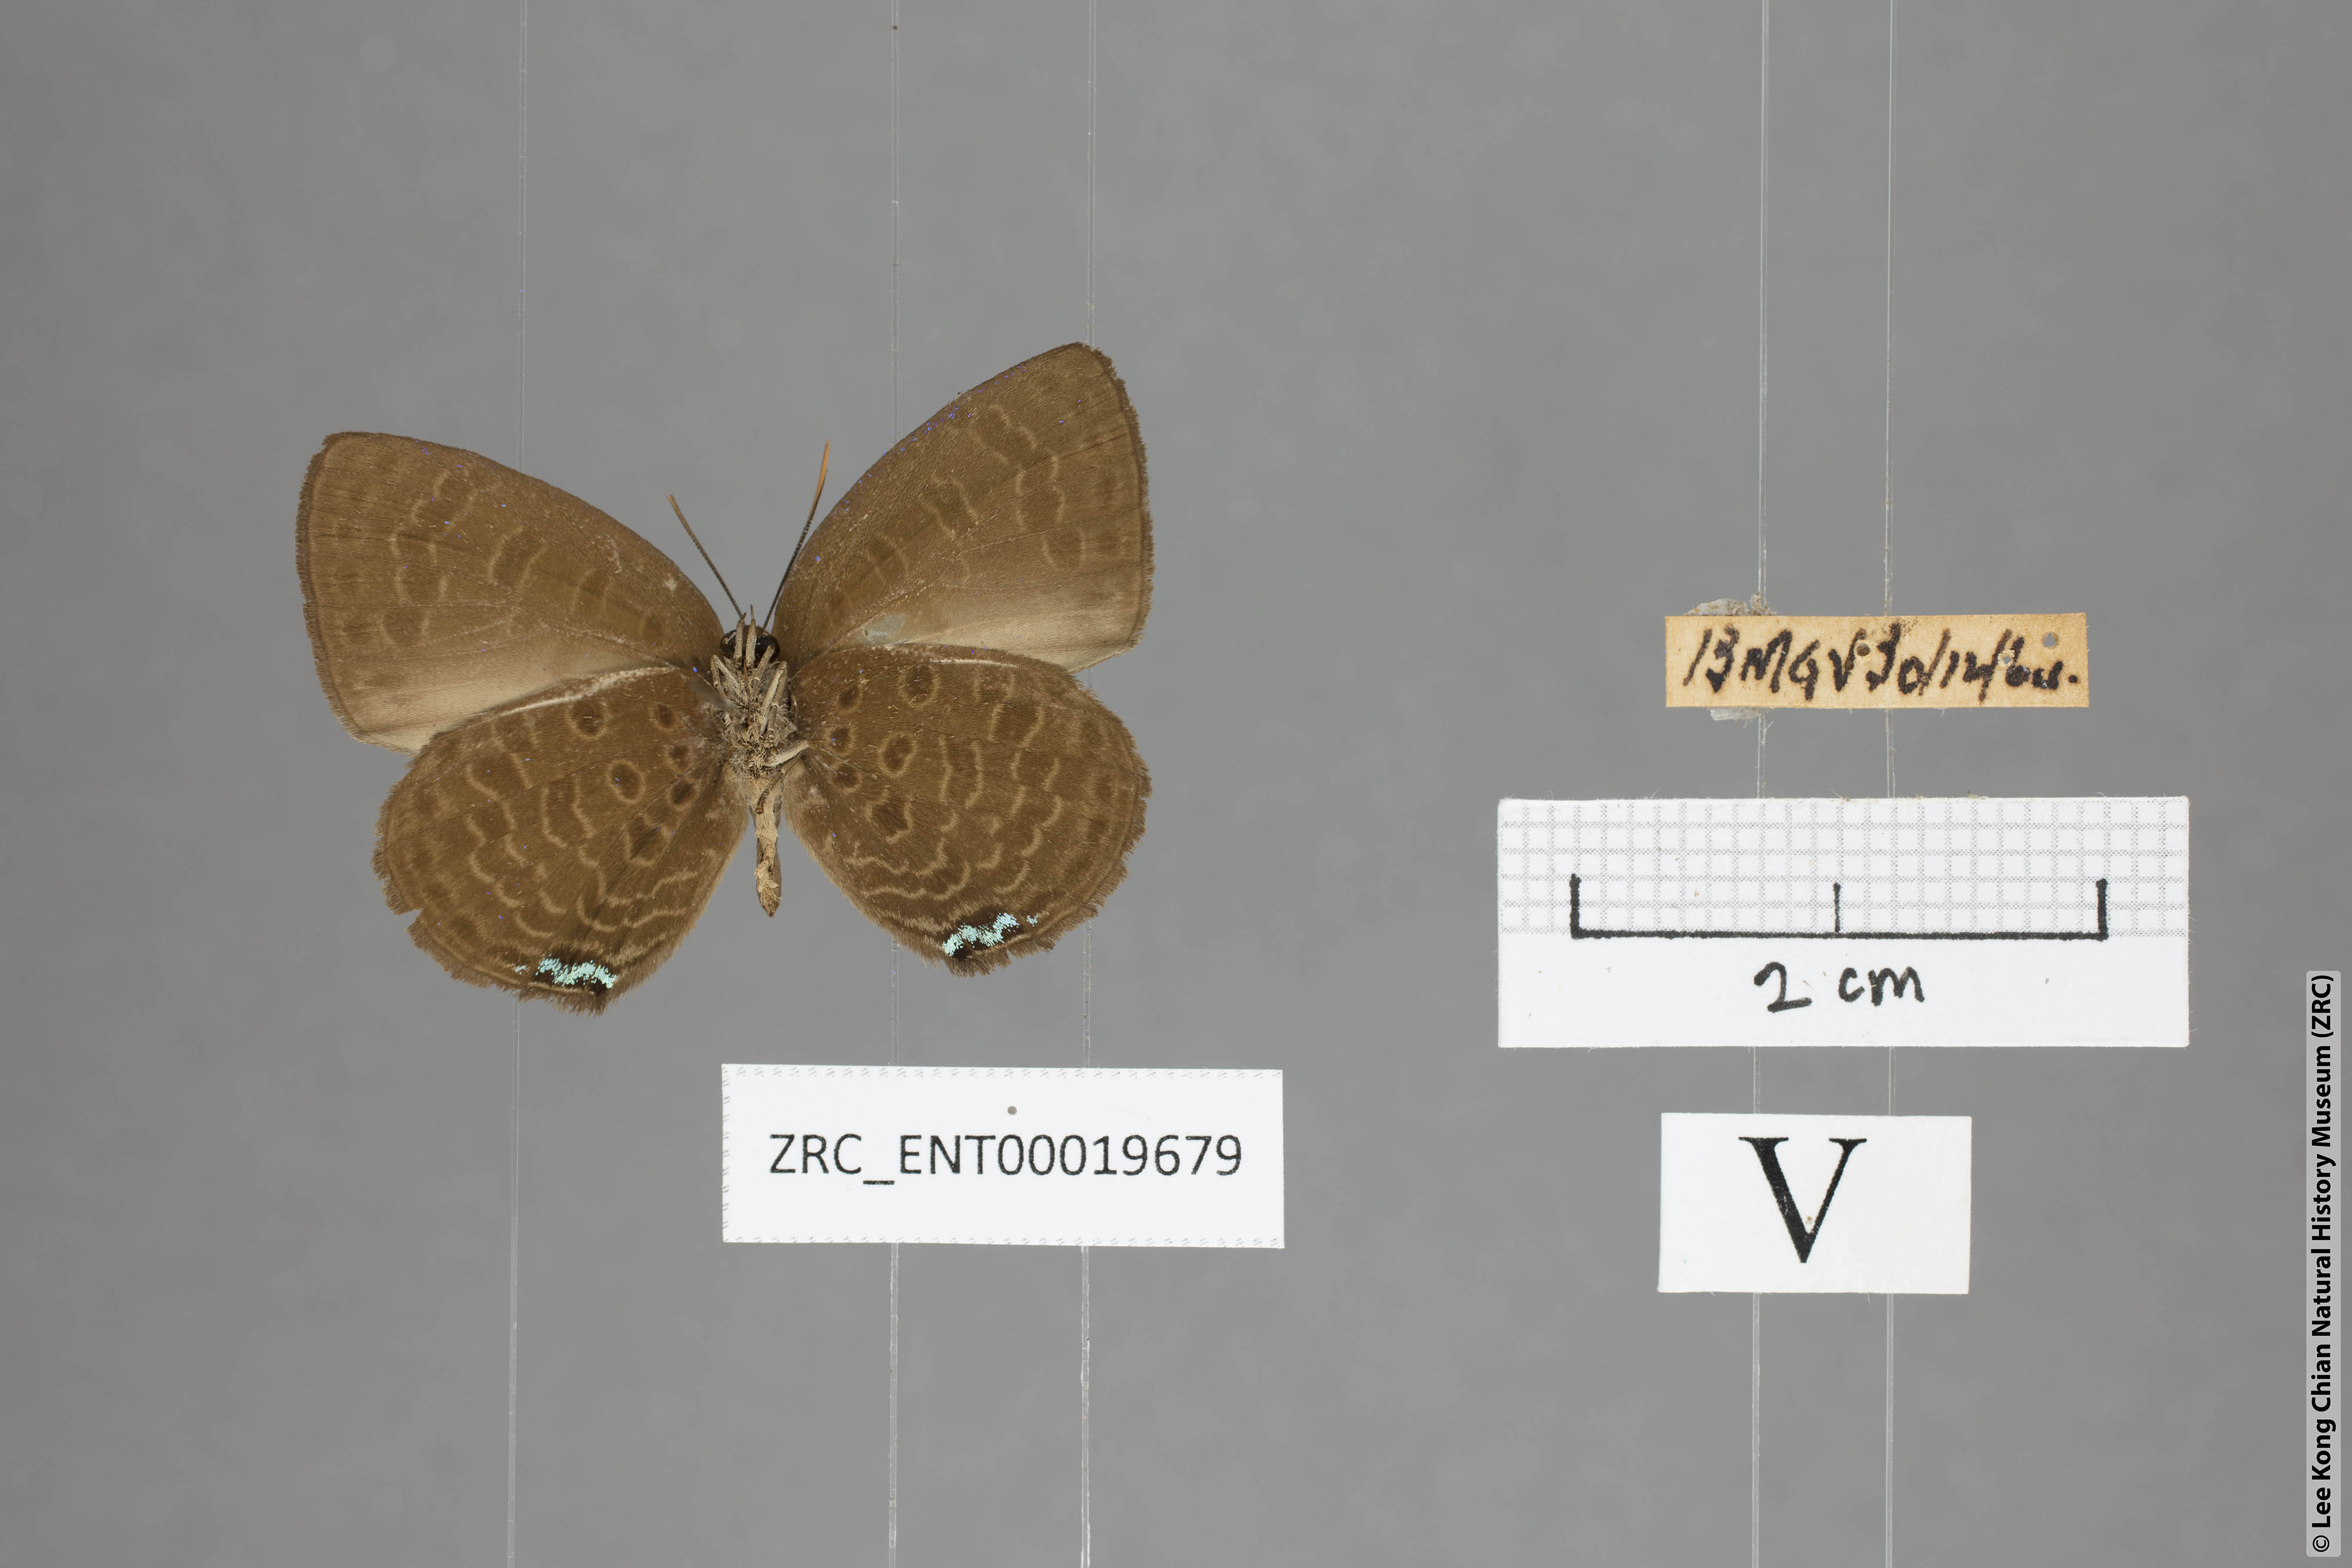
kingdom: Animalia
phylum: Arthropoda
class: Insecta
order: Lepidoptera
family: Lycaenidae
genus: Arhopala
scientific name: Arhopala moorei
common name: Moore's oakblue
